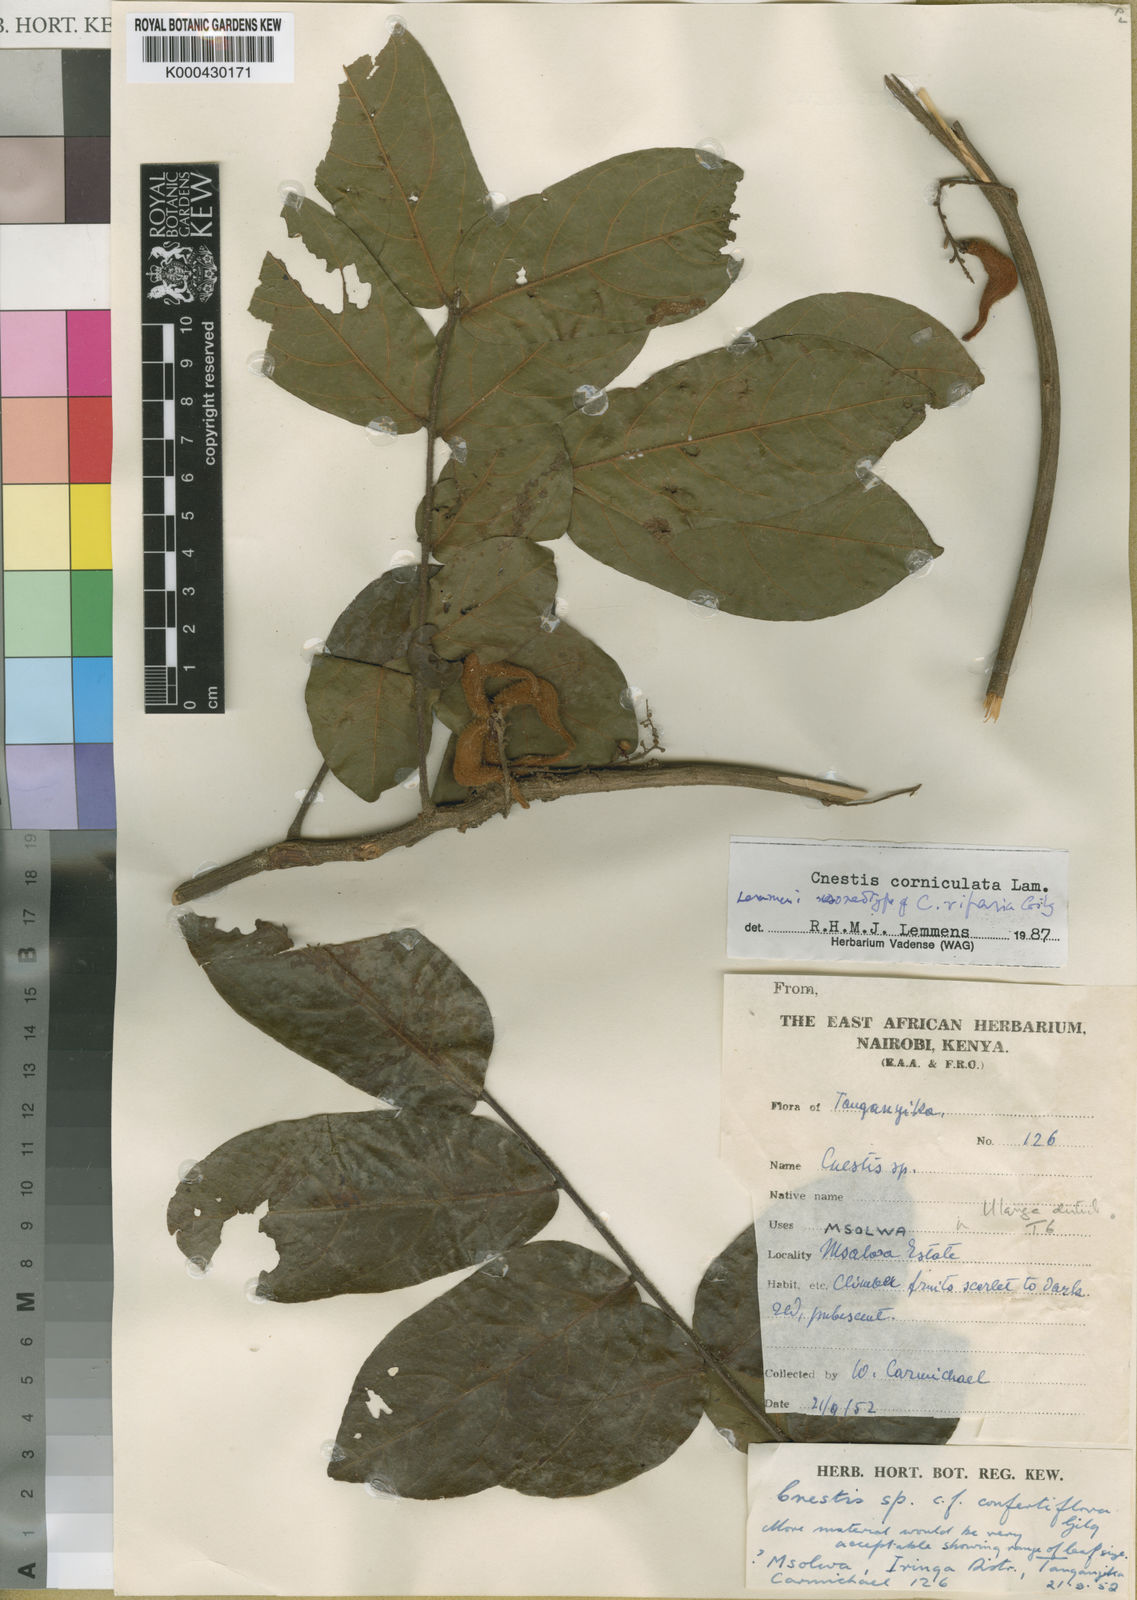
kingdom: Plantae
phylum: Tracheophyta
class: Magnoliopsida
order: Oxalidales
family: Connaraceae
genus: Cnestis
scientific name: Cnestis corniculata
